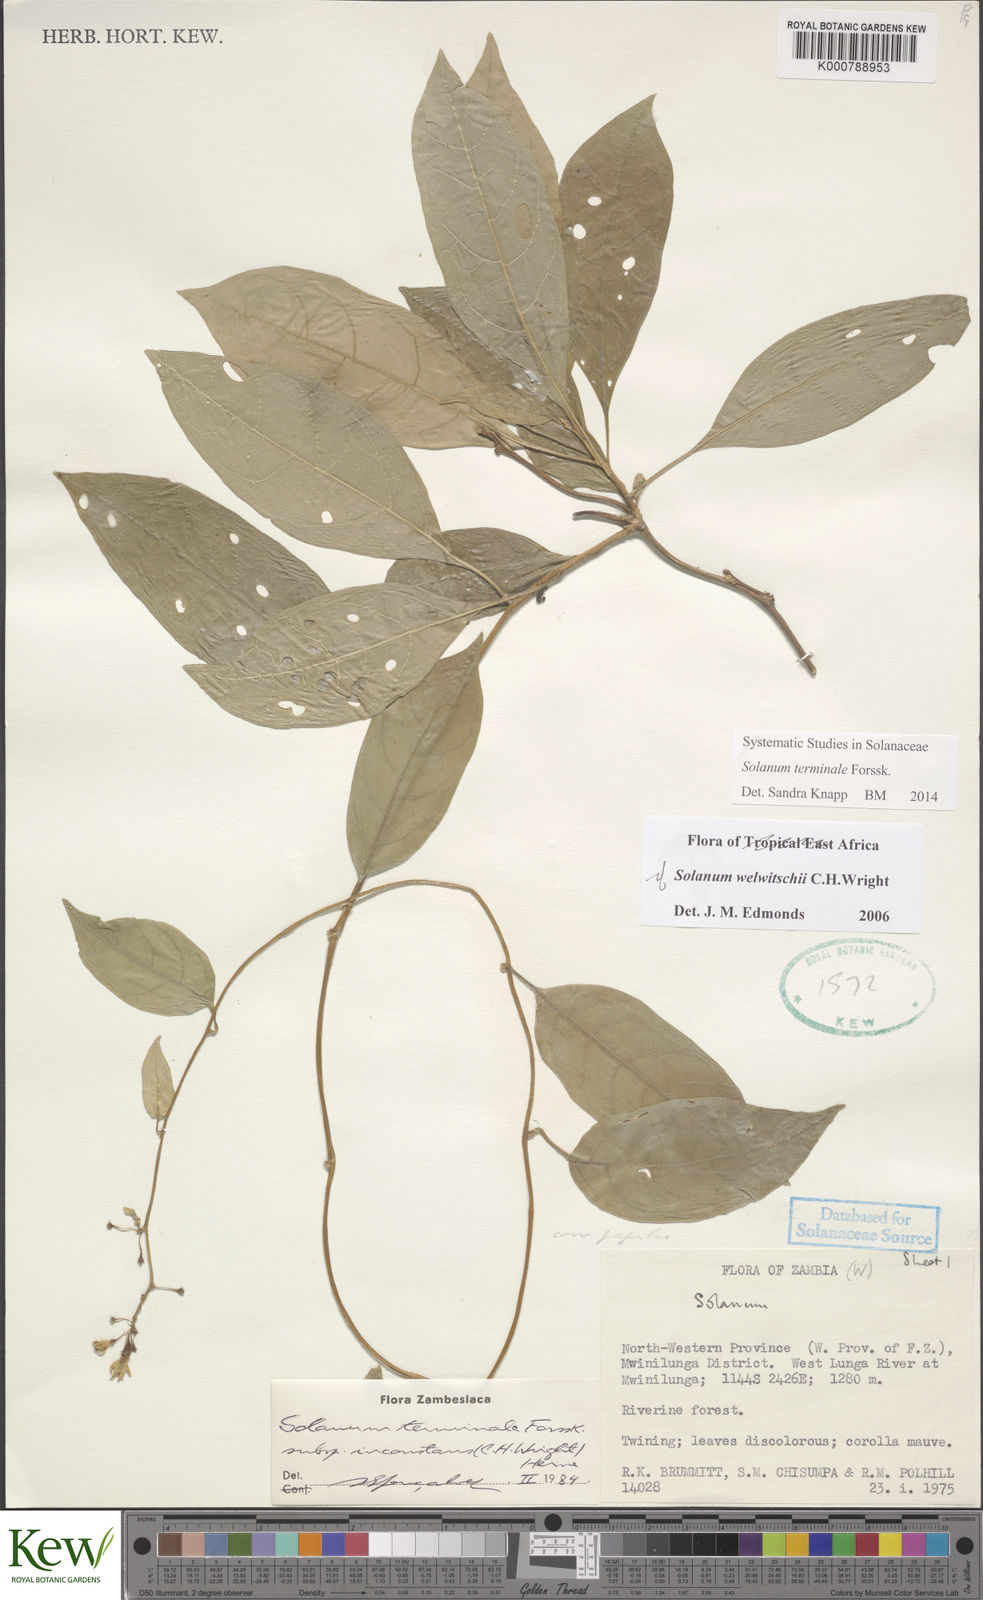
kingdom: Plantae
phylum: Tracheophyta
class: Magnoliopsida
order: Solanales
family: Solanaceae
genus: Solanum
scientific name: Solanum terminale
